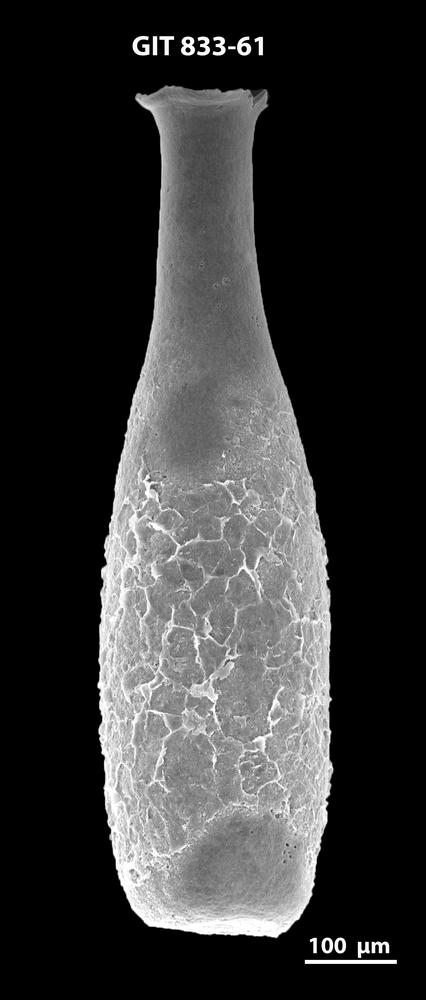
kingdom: Animalia
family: Lagenochitinidae
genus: Lagenochitina
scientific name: Lagenochitina megaesthonica
